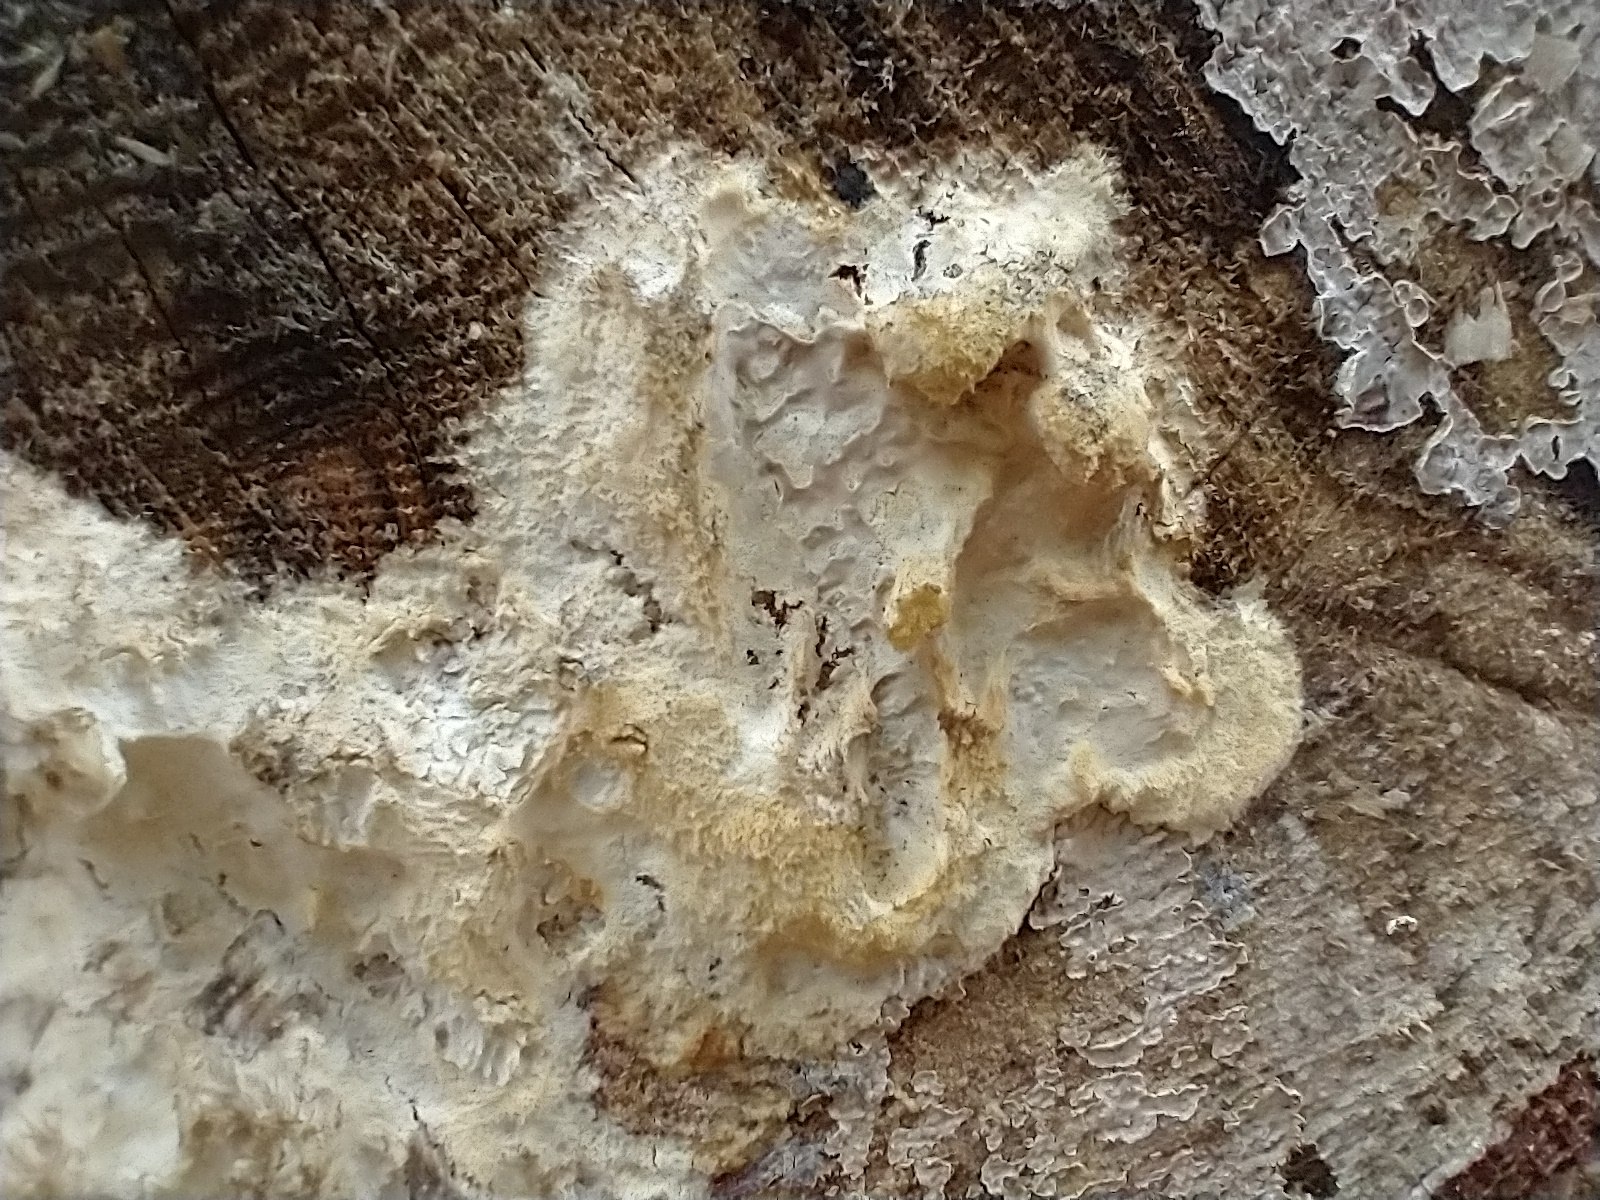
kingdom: Fungi
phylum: Basidiomycota
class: Agaricomycetes
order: Corticiales
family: Corticiaceae
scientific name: Corticiaceae
